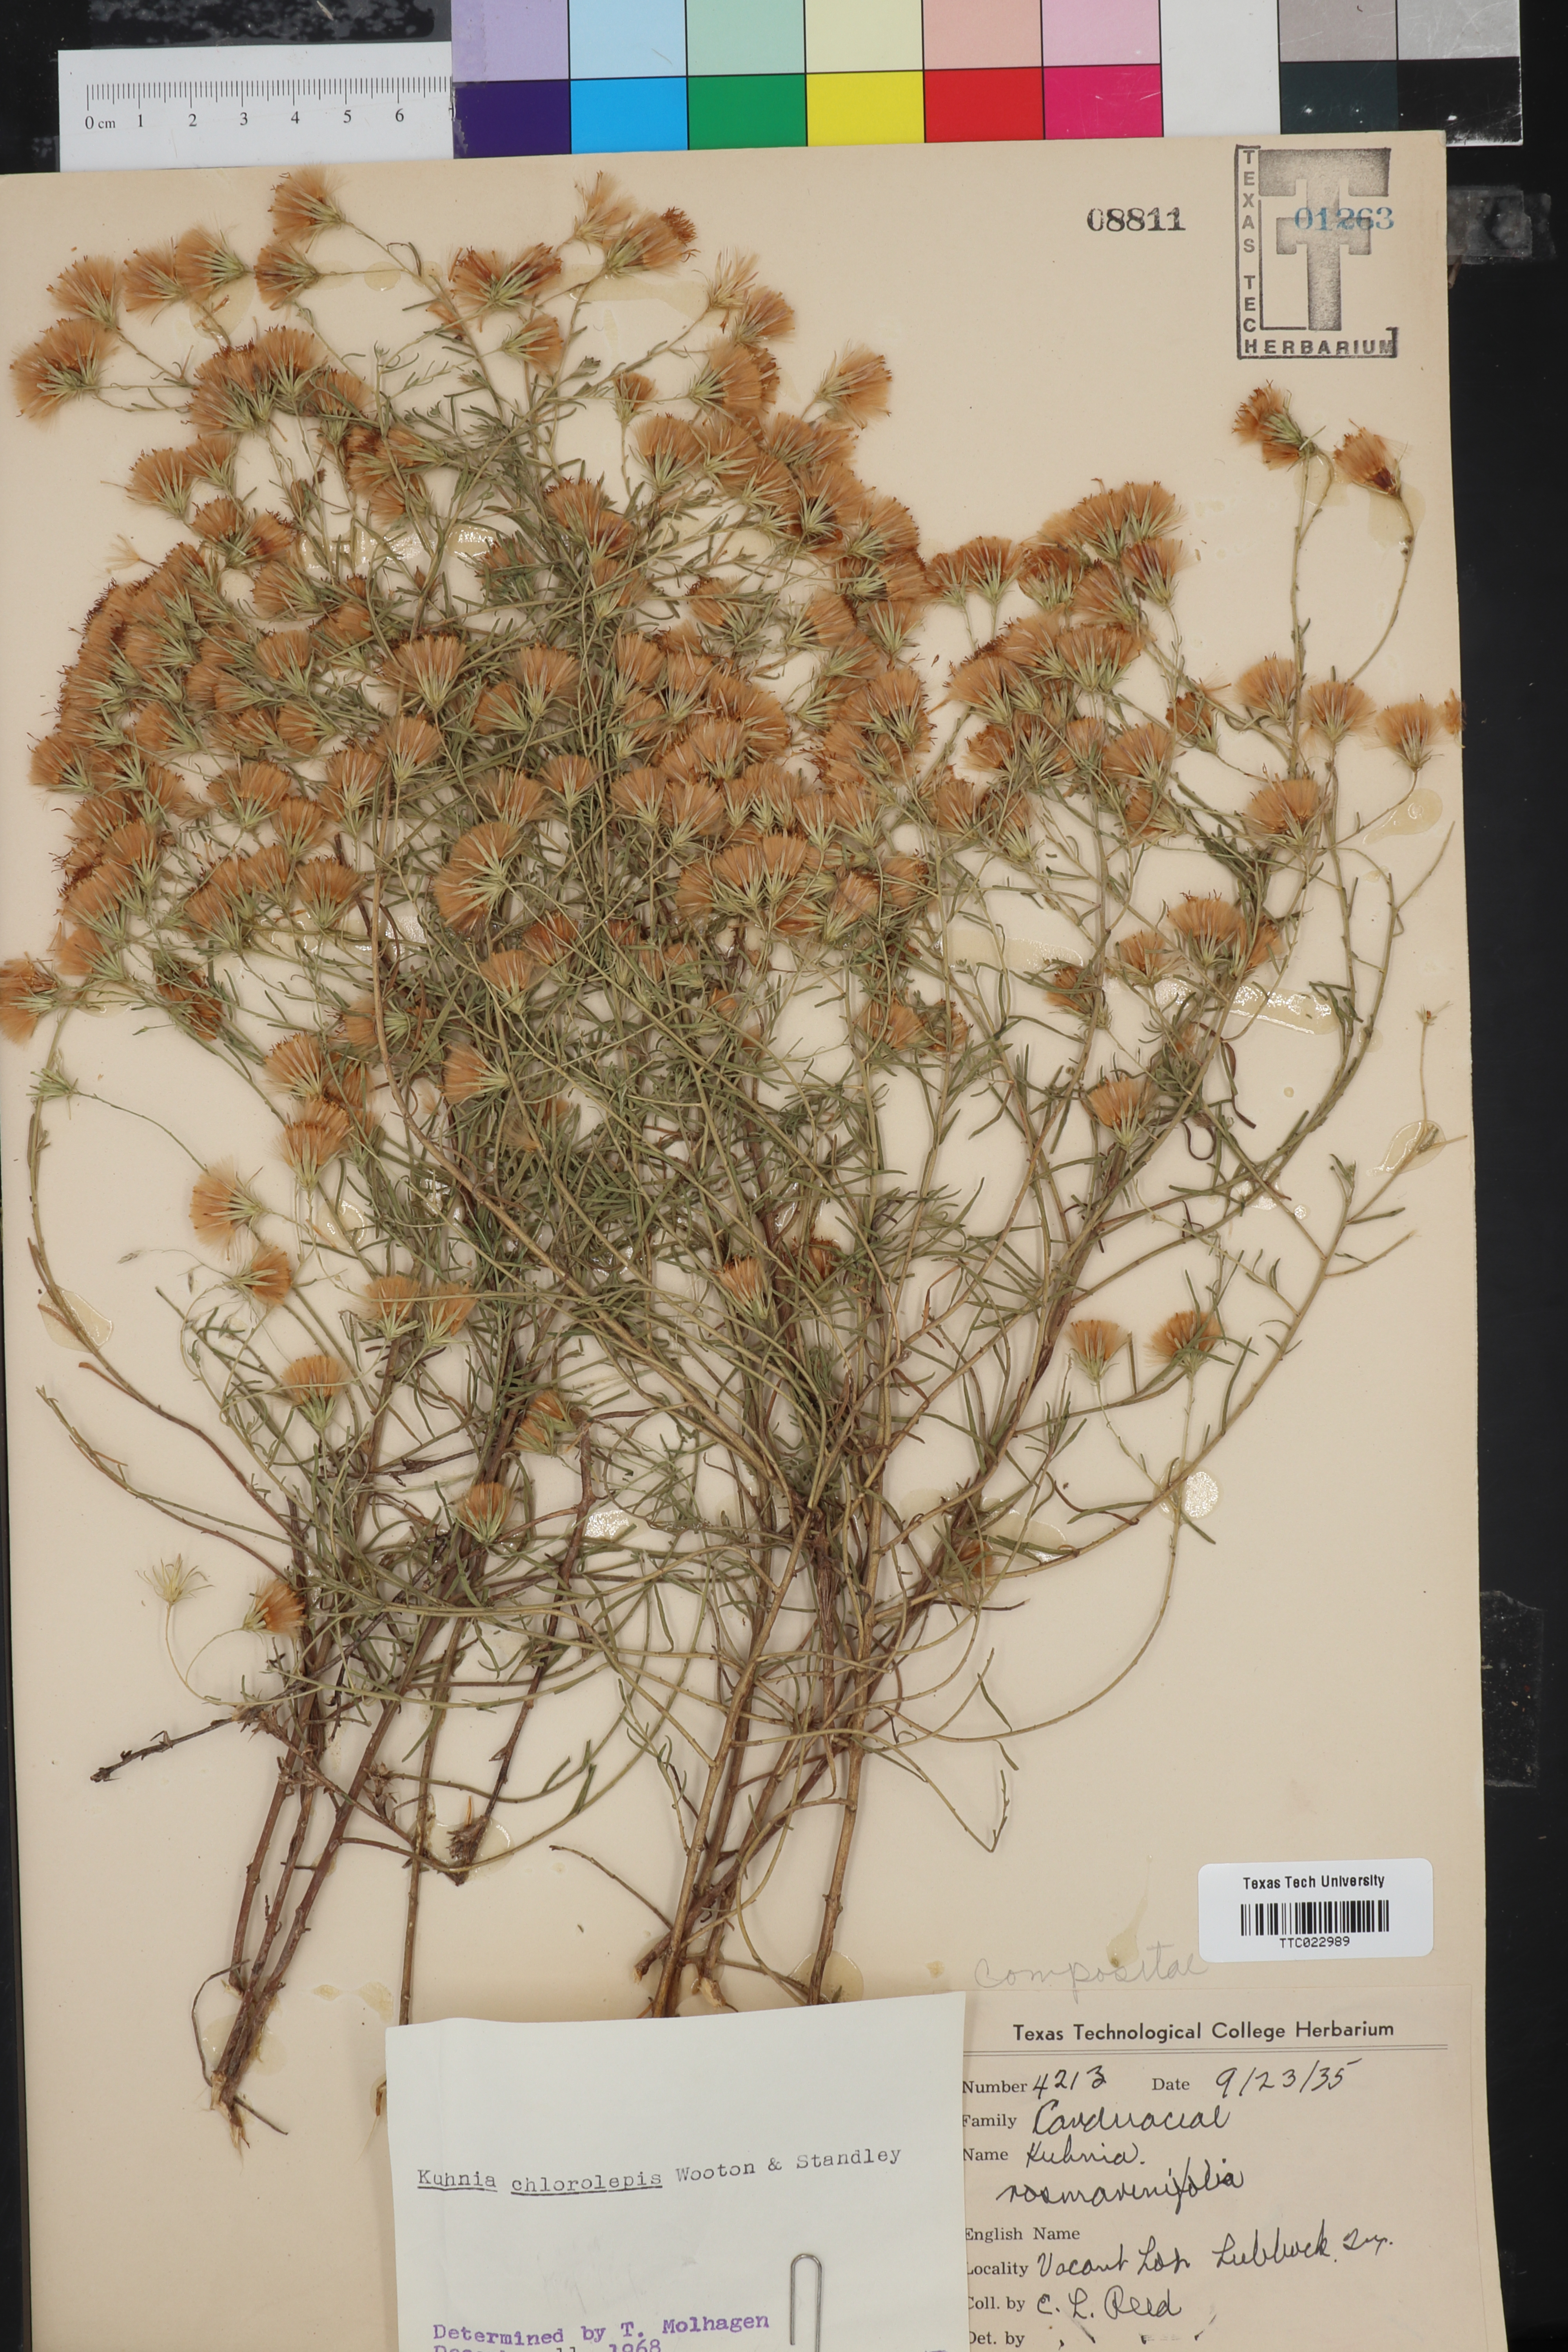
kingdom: Plantae
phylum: Tracheophyta
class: Magnoliopsida
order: Asterales
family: Asteraceae
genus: Brickellia
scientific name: Brickellia leptophylla
